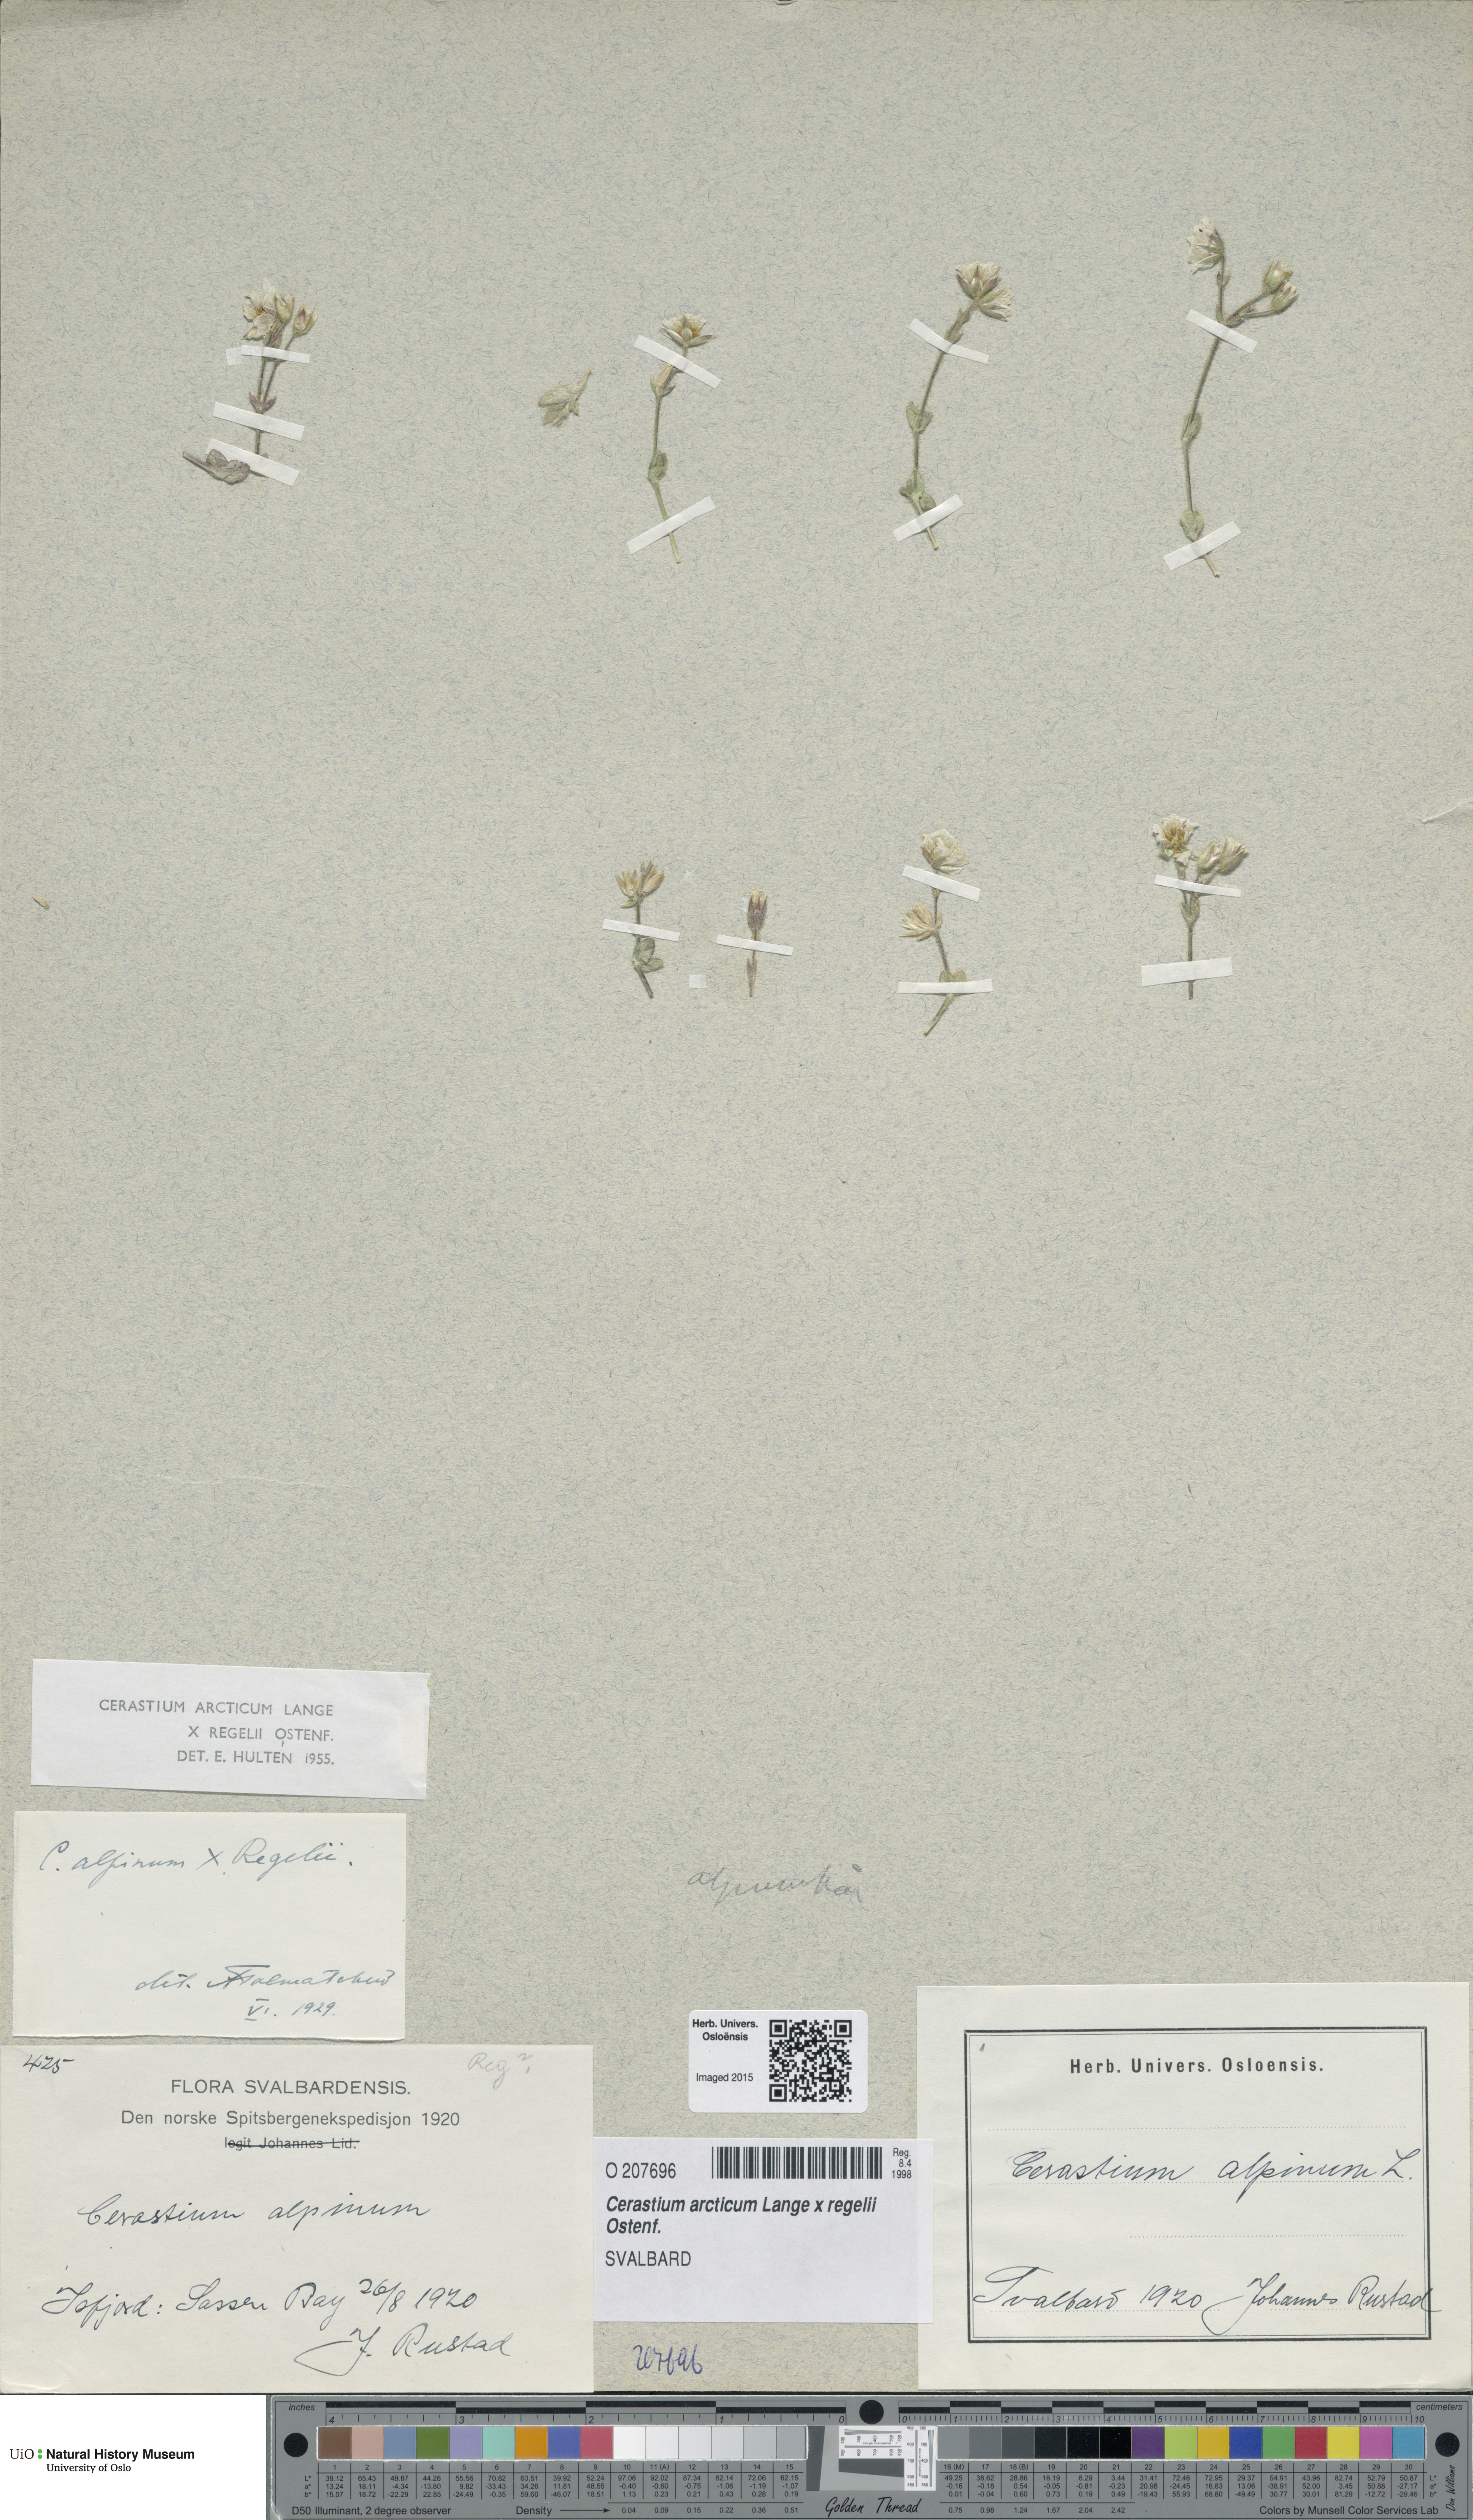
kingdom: Plantae
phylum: Tracheophyta
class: Magnoliopsida
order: Caryophyllales
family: Caryophyllaceae
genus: Cerastium
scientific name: Cerastium
